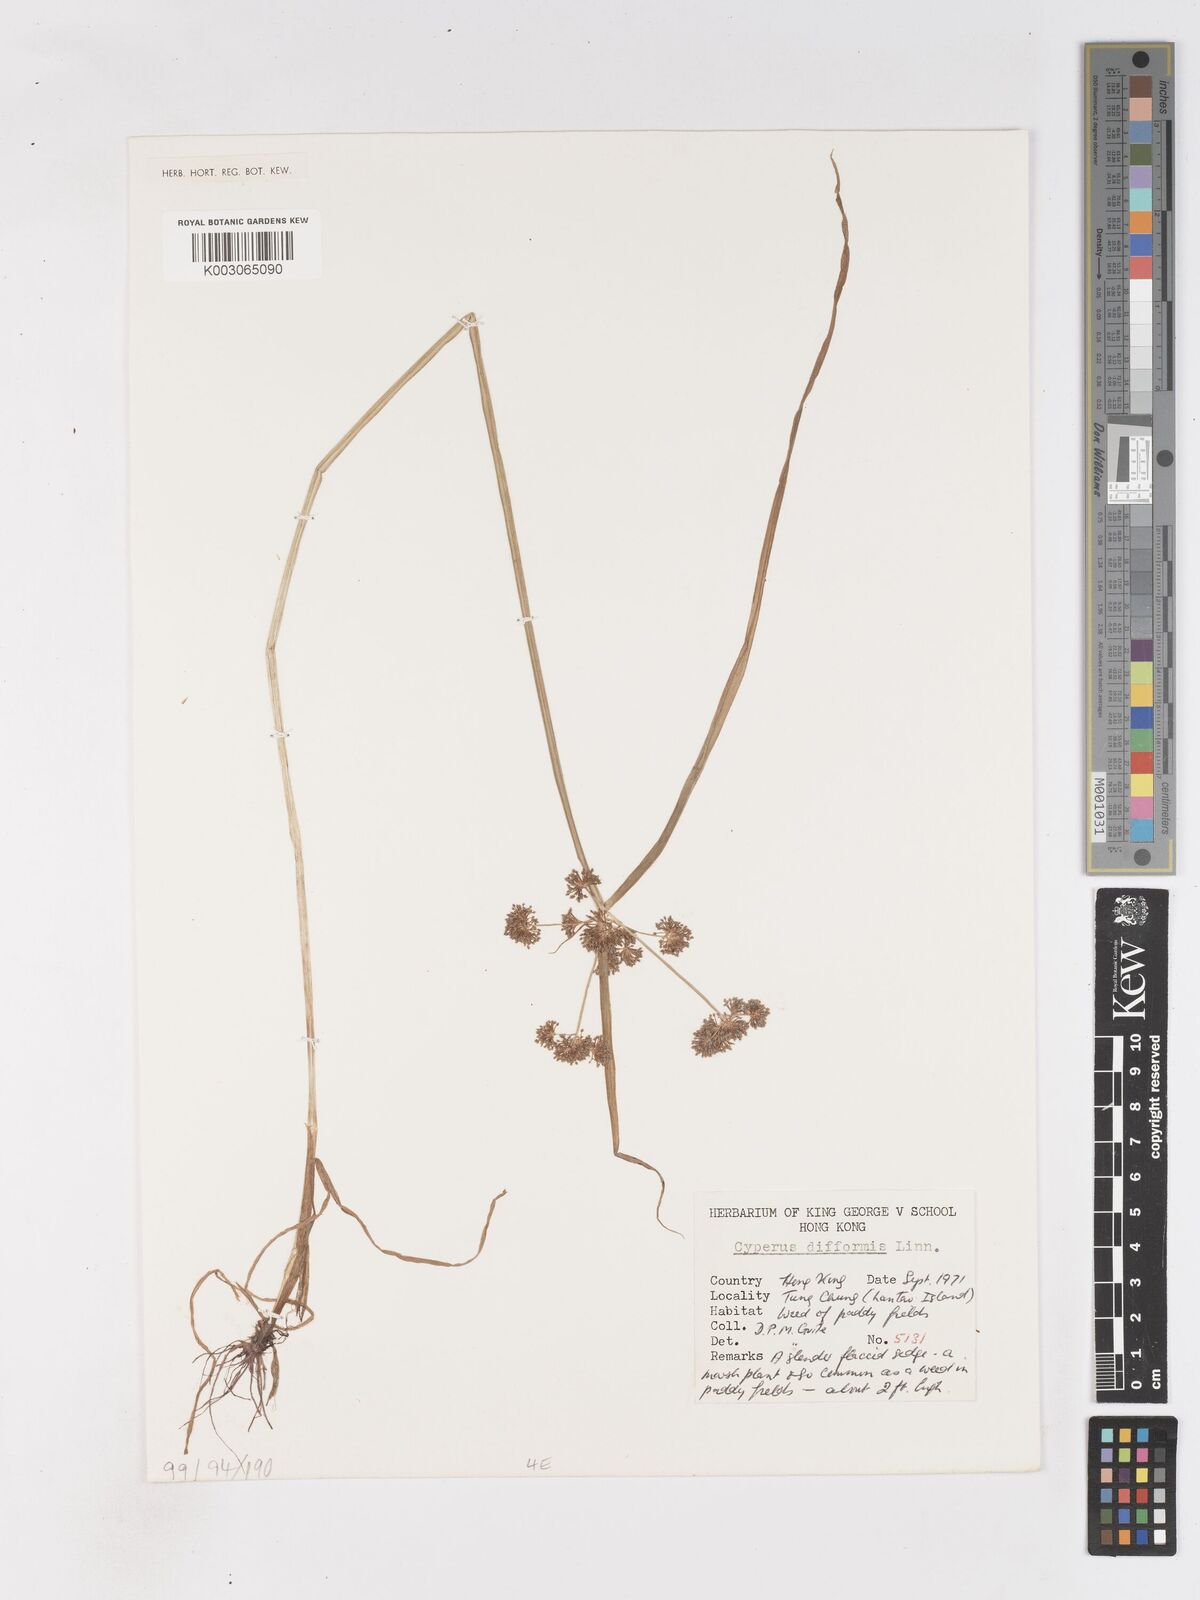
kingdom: Plantae
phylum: Tracheophyta
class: Liliopsida
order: Poales
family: Cyperaceae
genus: Cyperus
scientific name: Cyperus difformis
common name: Variable flatsedge
